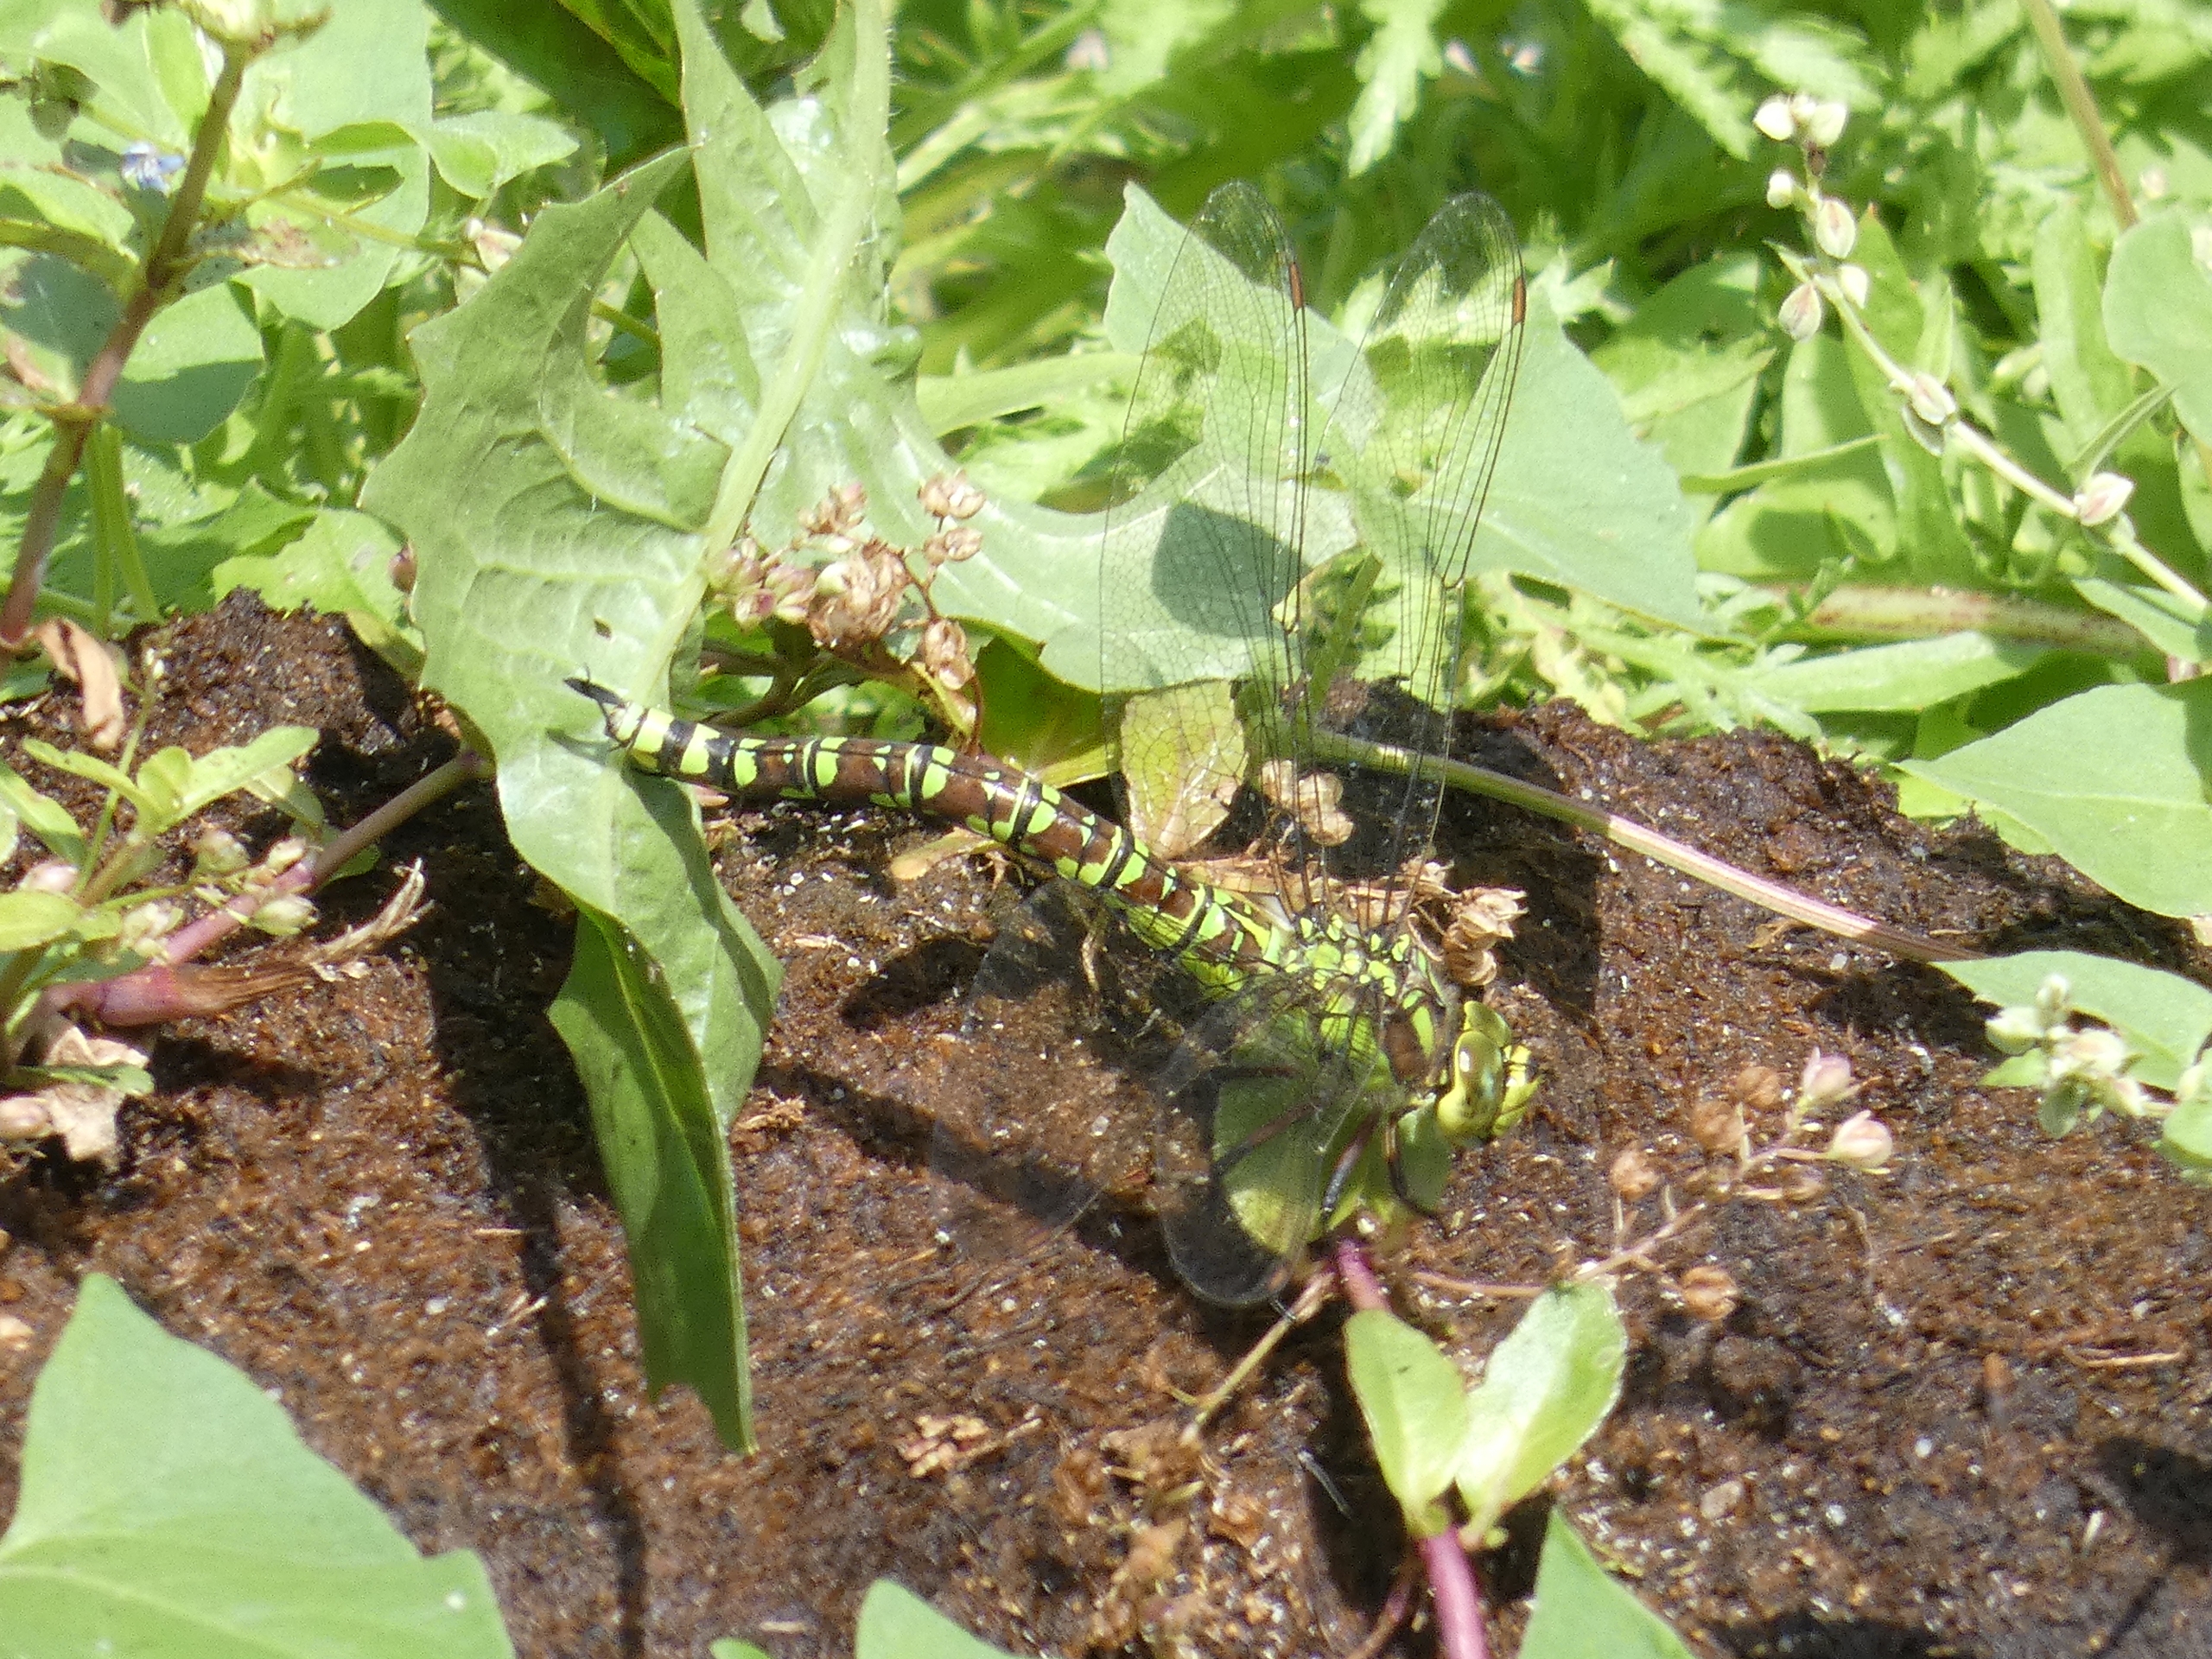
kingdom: Animalia
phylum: Arthropoda
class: Insecta
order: Odonata
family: Aeshnidae
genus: Aeshna
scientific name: Aeshna cyanea
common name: Blå mosaikguldsmed
